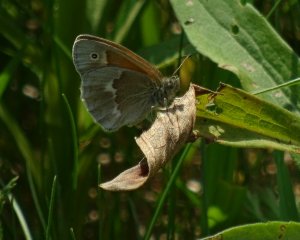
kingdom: Animalia
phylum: Arthropoda
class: Insecta
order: Lepidoptera
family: Nymphalidae
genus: Coenonympha
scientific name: Coenonympha tullia
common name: Large Heath
